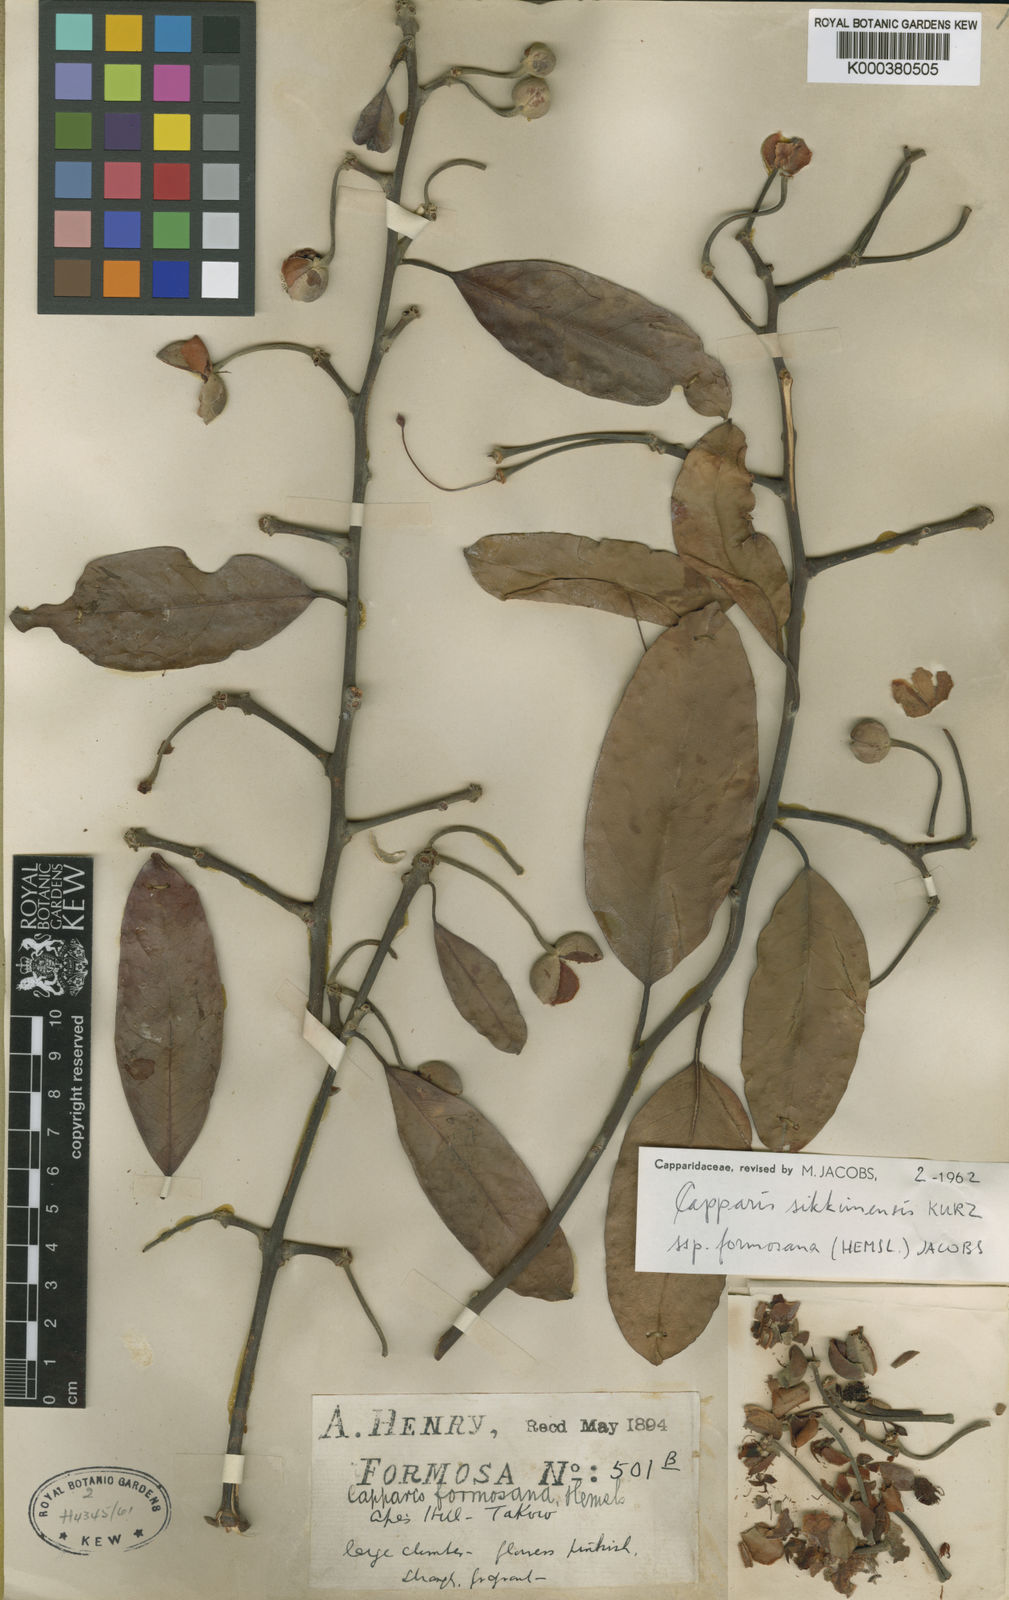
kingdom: Plantae
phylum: Tracheophyta
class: Magnoliopsida
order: Brassicales
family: Capparaceae
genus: Capparis
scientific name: Capparis formosana
